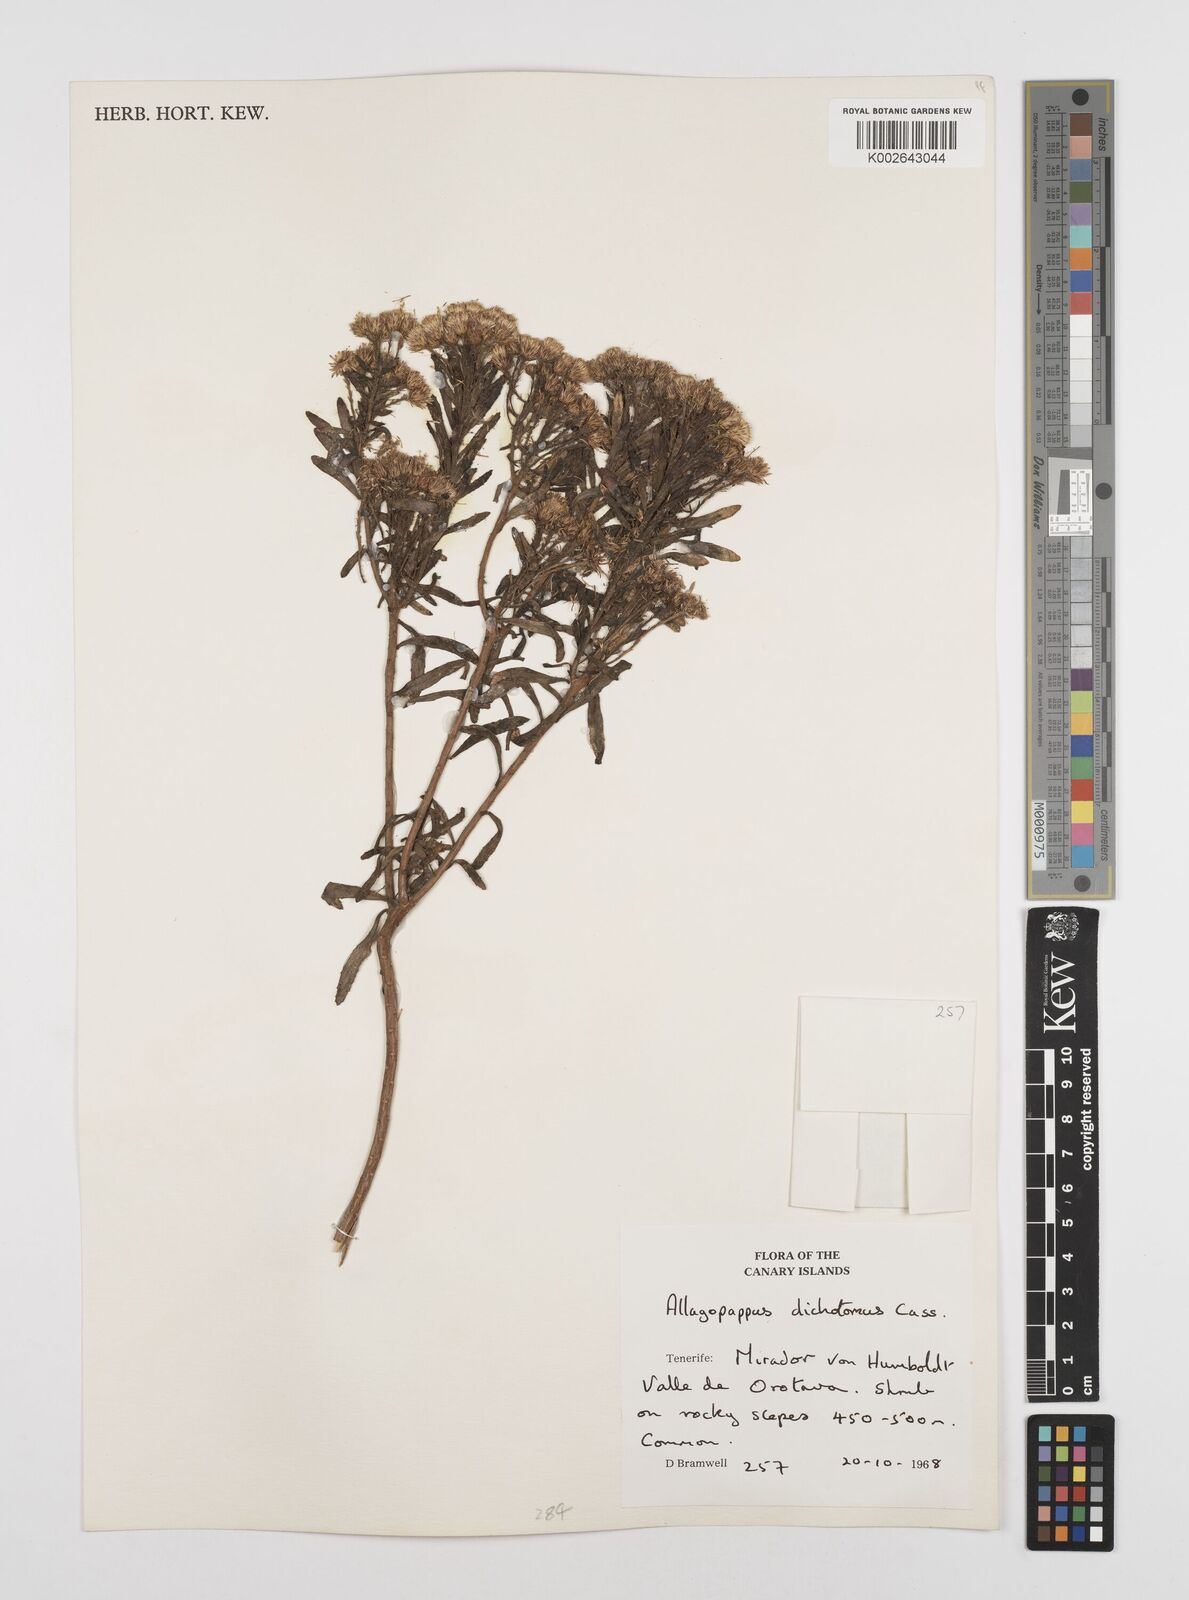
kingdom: Plantae
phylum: Tracheophyta
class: Magnoliopsida
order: Asterales
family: Asteraceae
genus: Allagopappus
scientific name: Allagopappus canariensis
